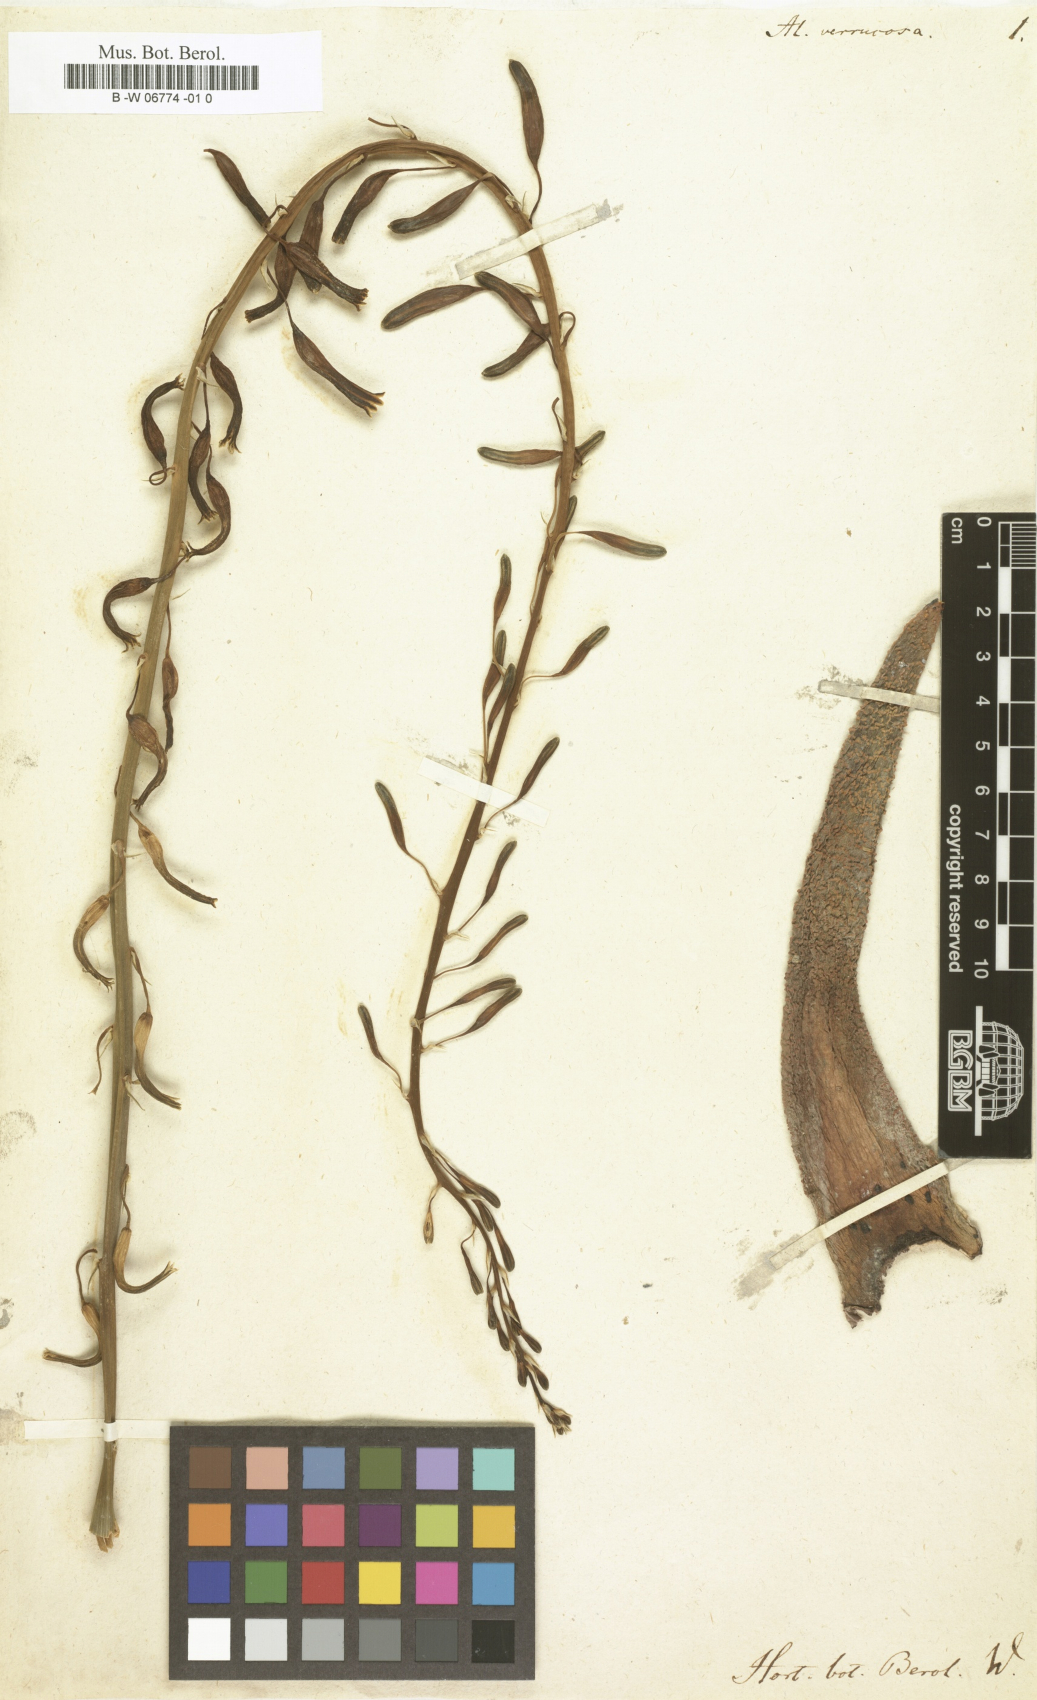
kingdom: Plantae
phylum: Tracheophyta
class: Liliopsida
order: Asparagales
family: Asphodelaceae
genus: Gasteria
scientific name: Gasteria carinata
